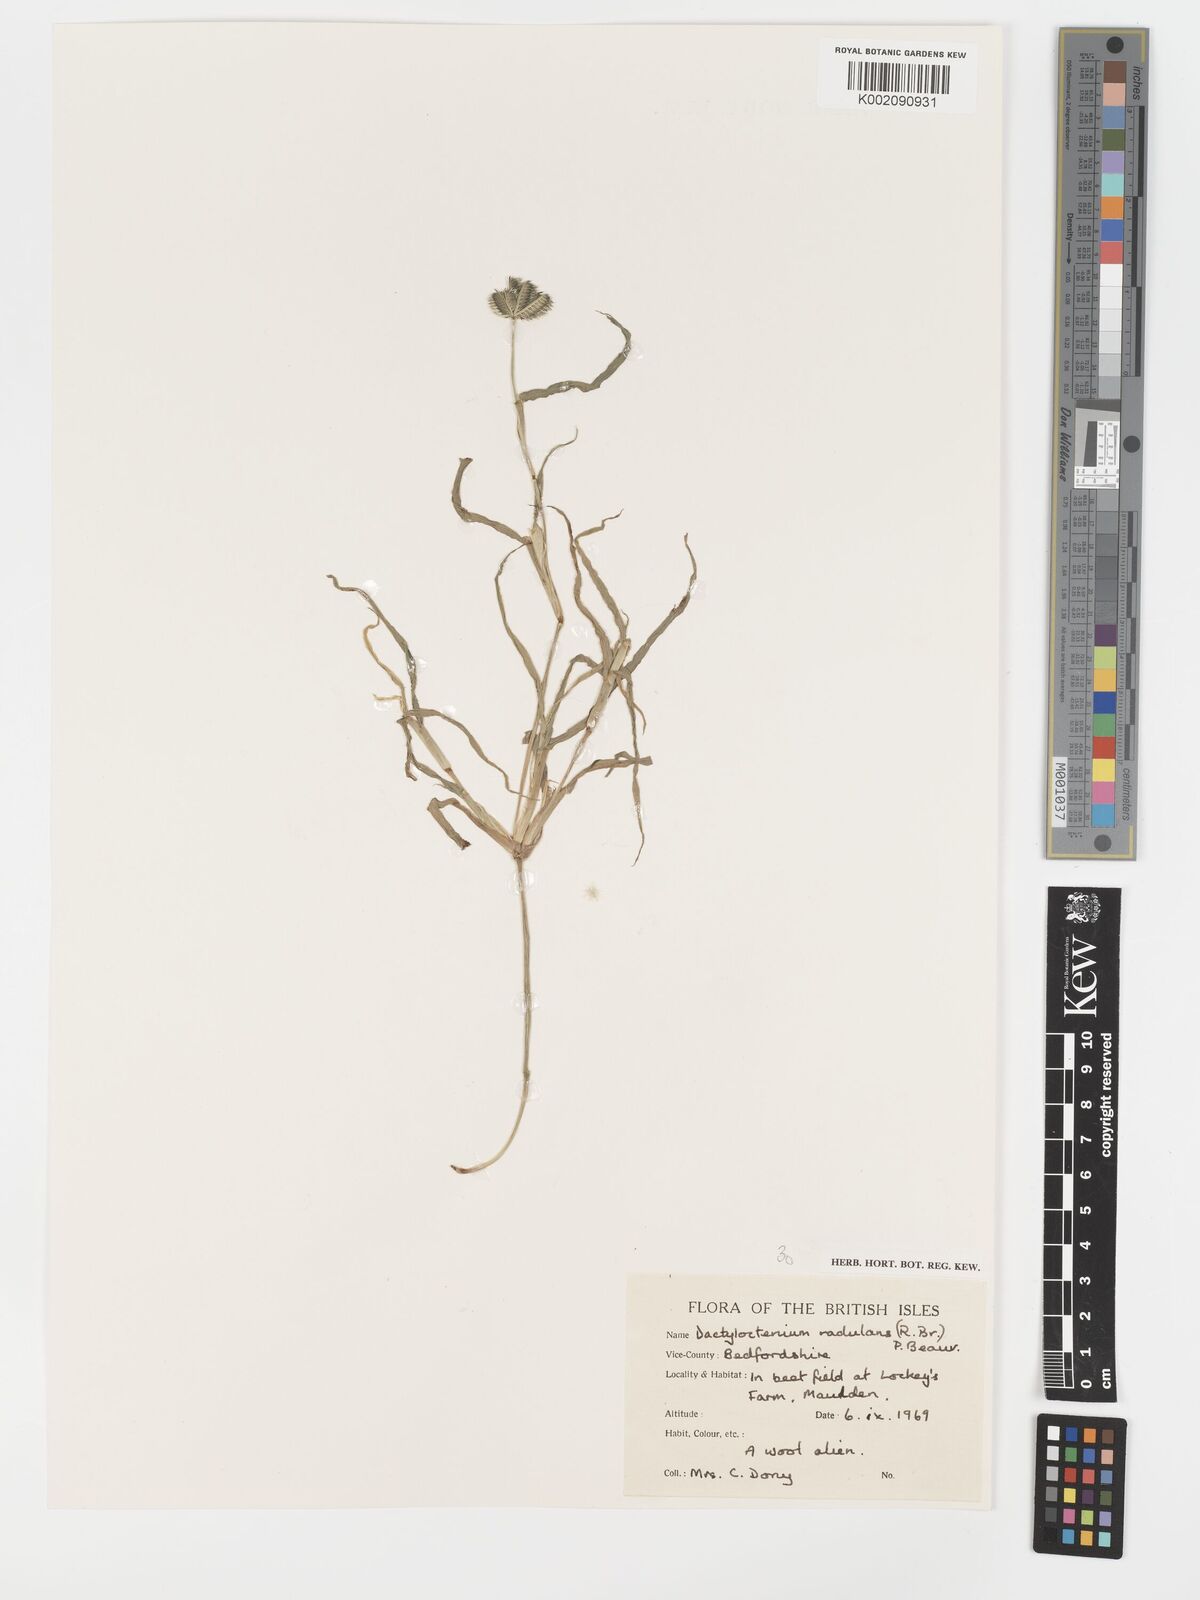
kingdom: Plantae
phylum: Tracheophyta
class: Liliopsida
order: Poales
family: Poaceae
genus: Dactyloctenium
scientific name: Dactyloctenium radulans
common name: Button-grass
